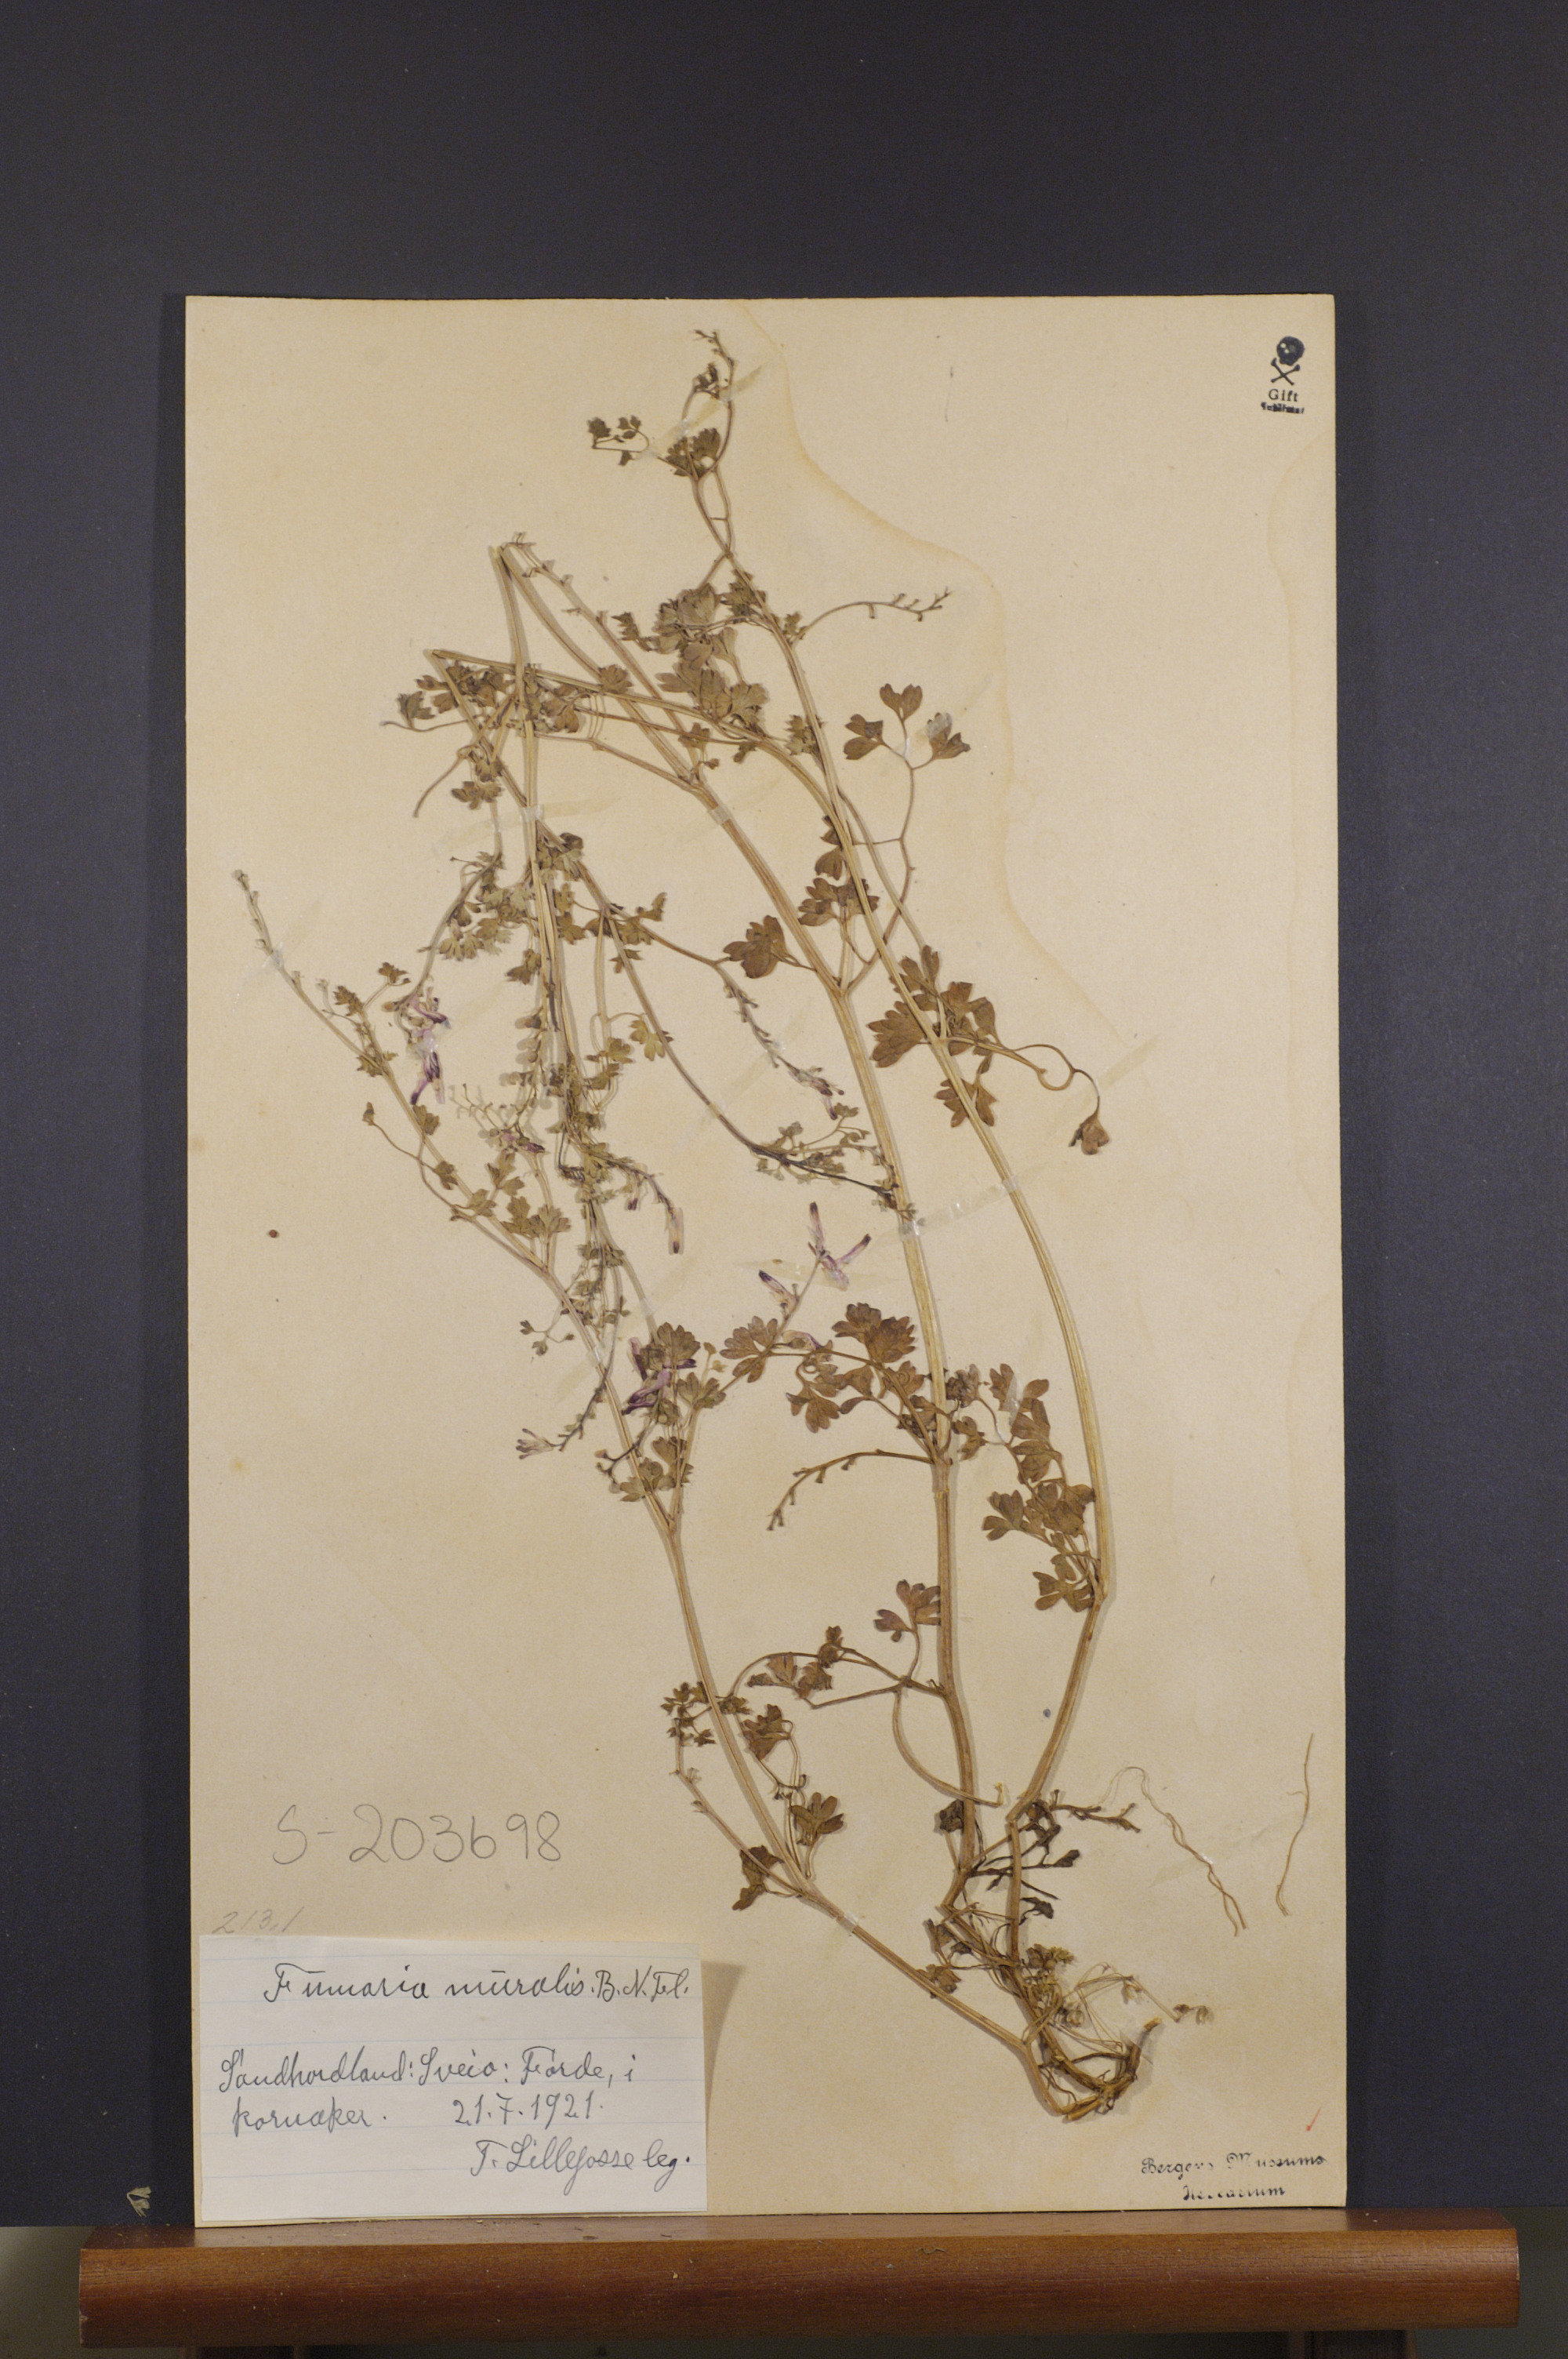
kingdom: Plantae
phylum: Tracheophyta
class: Magnoliopsida
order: Ranunculales
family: Papaveraceae
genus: Fumaria
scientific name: Fumaria muralis
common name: Common ramping-fumitory
